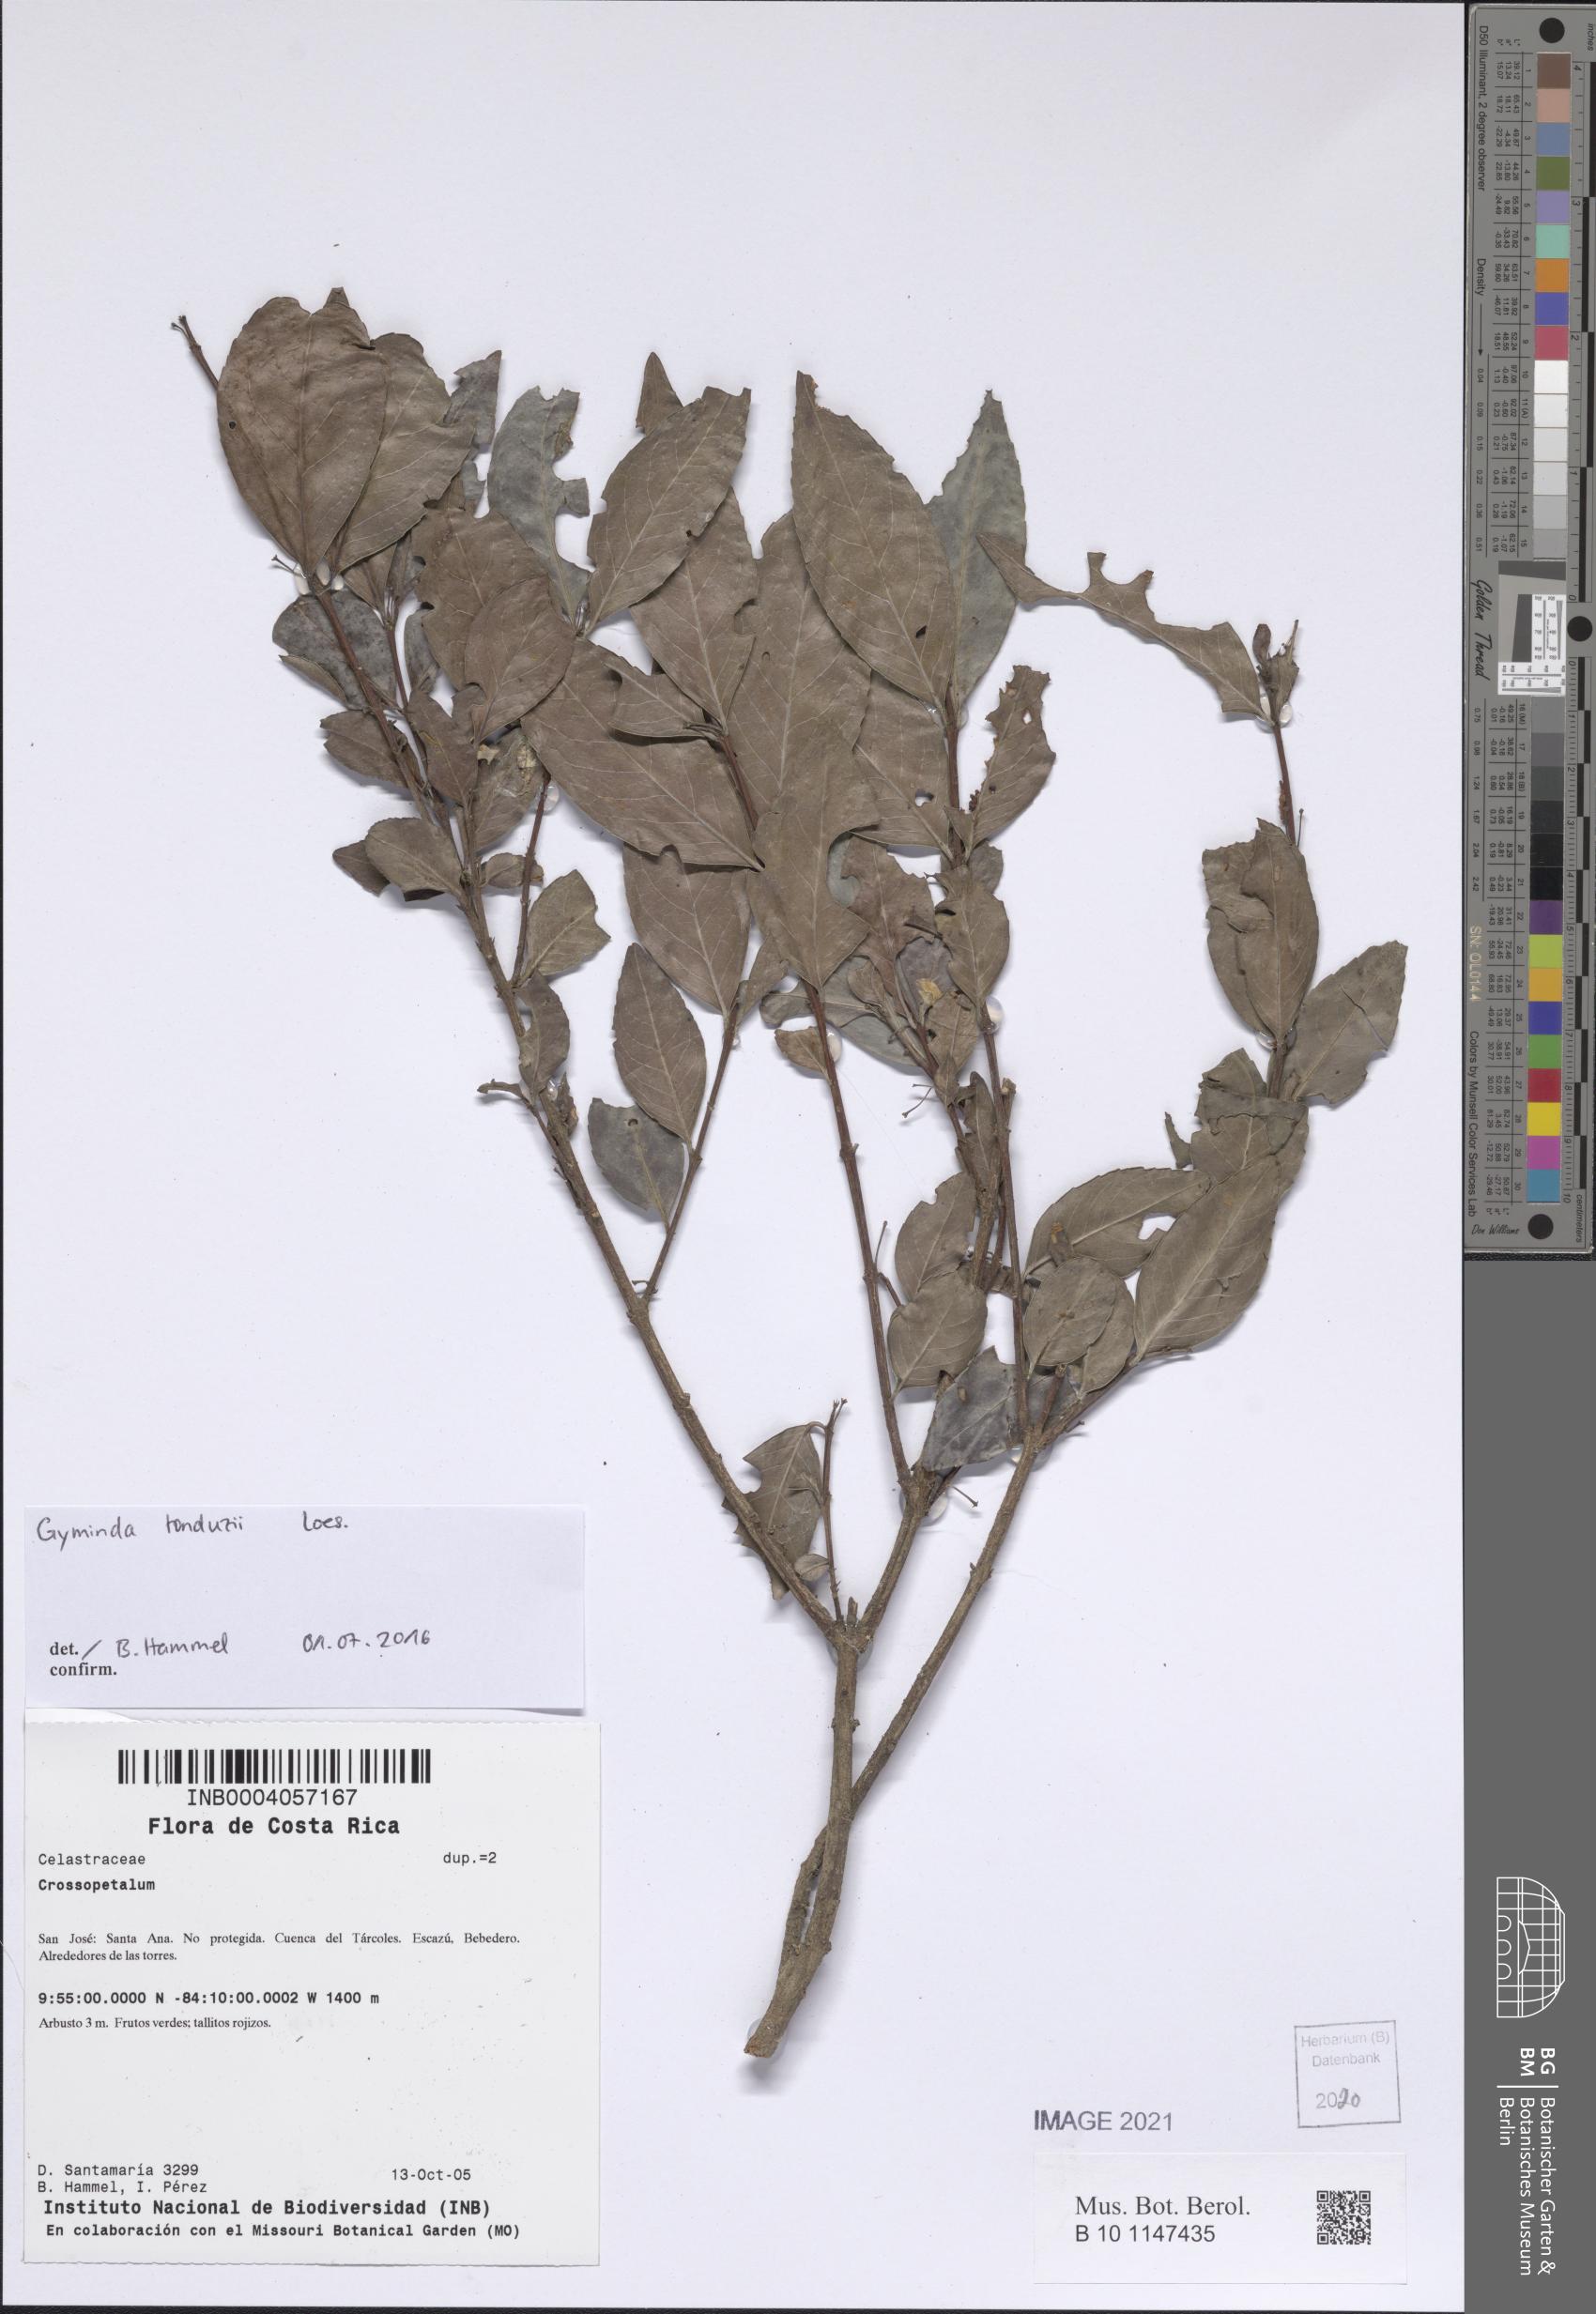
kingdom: Plantae
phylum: Tracheophyta
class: Magnoliopsida
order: Celastrales
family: Celastraceae
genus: Crossopetalum
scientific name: Crossopetalum
